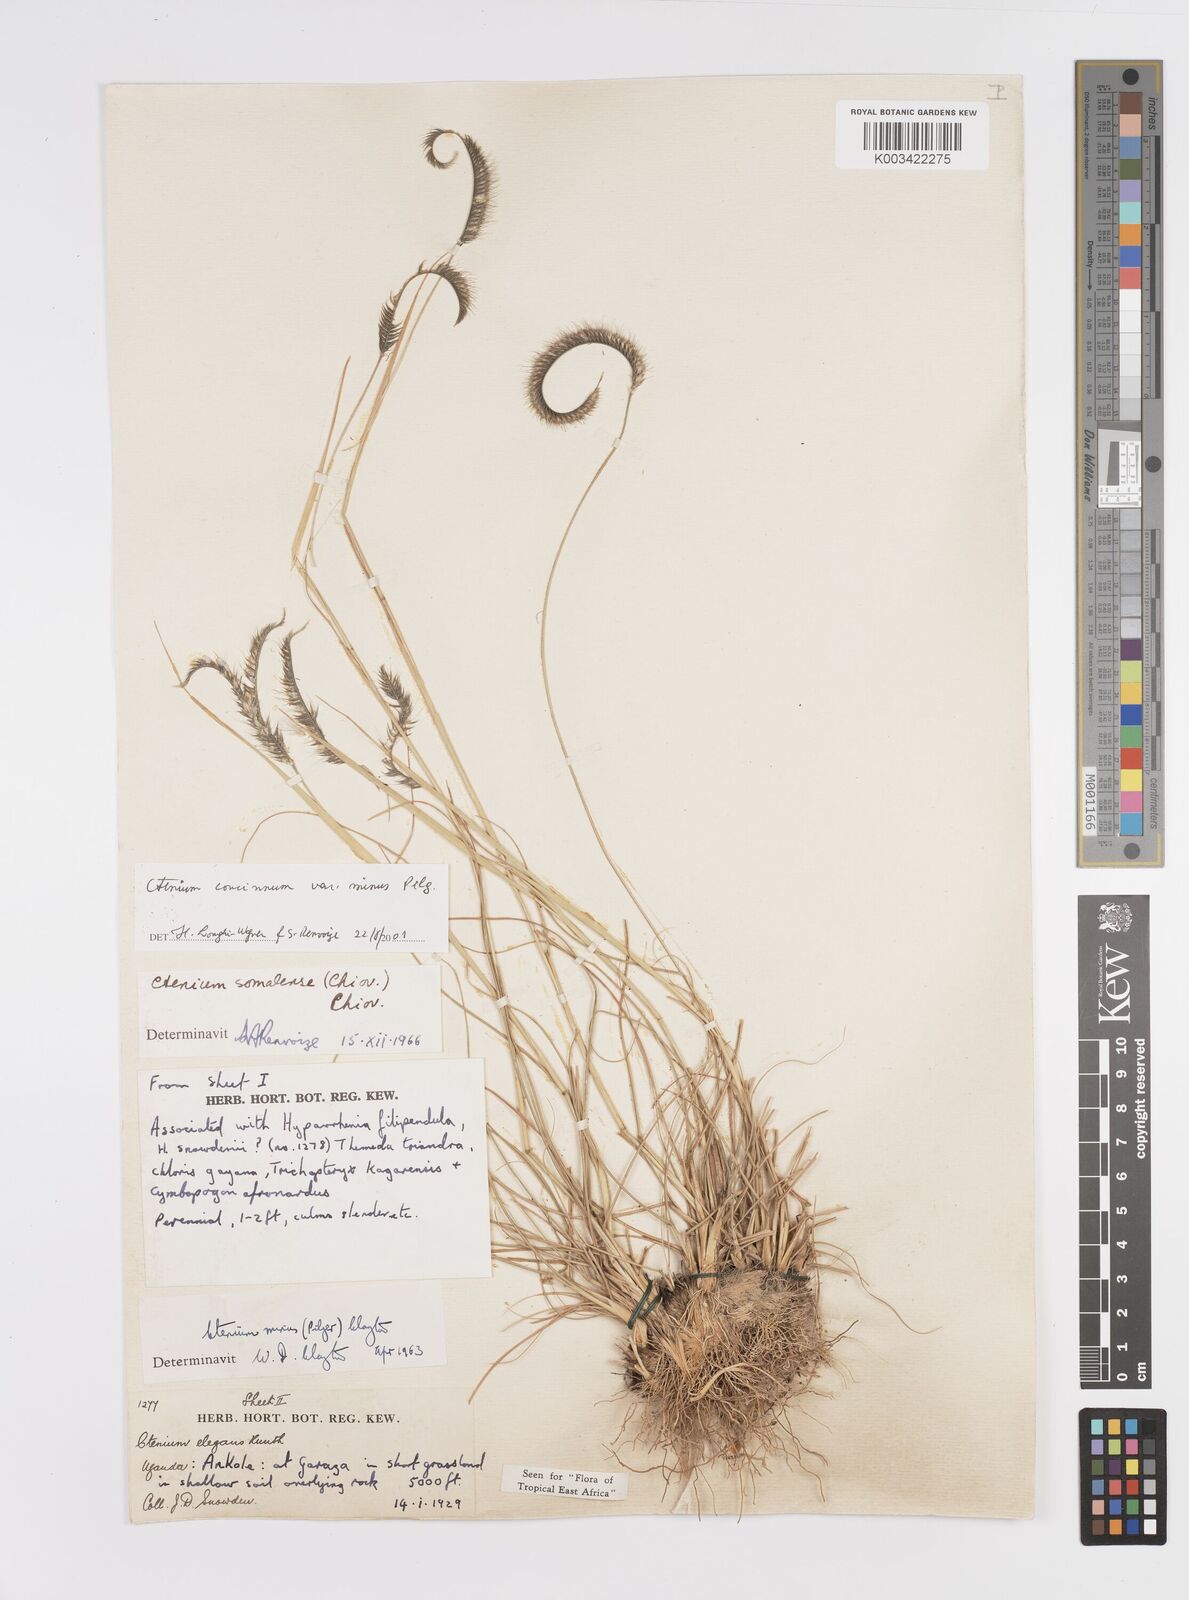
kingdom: Plantae
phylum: Tracheophyta
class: Liliopsida
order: Poales
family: Poaceae
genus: Ctenium
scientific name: Ctenium concinnum
